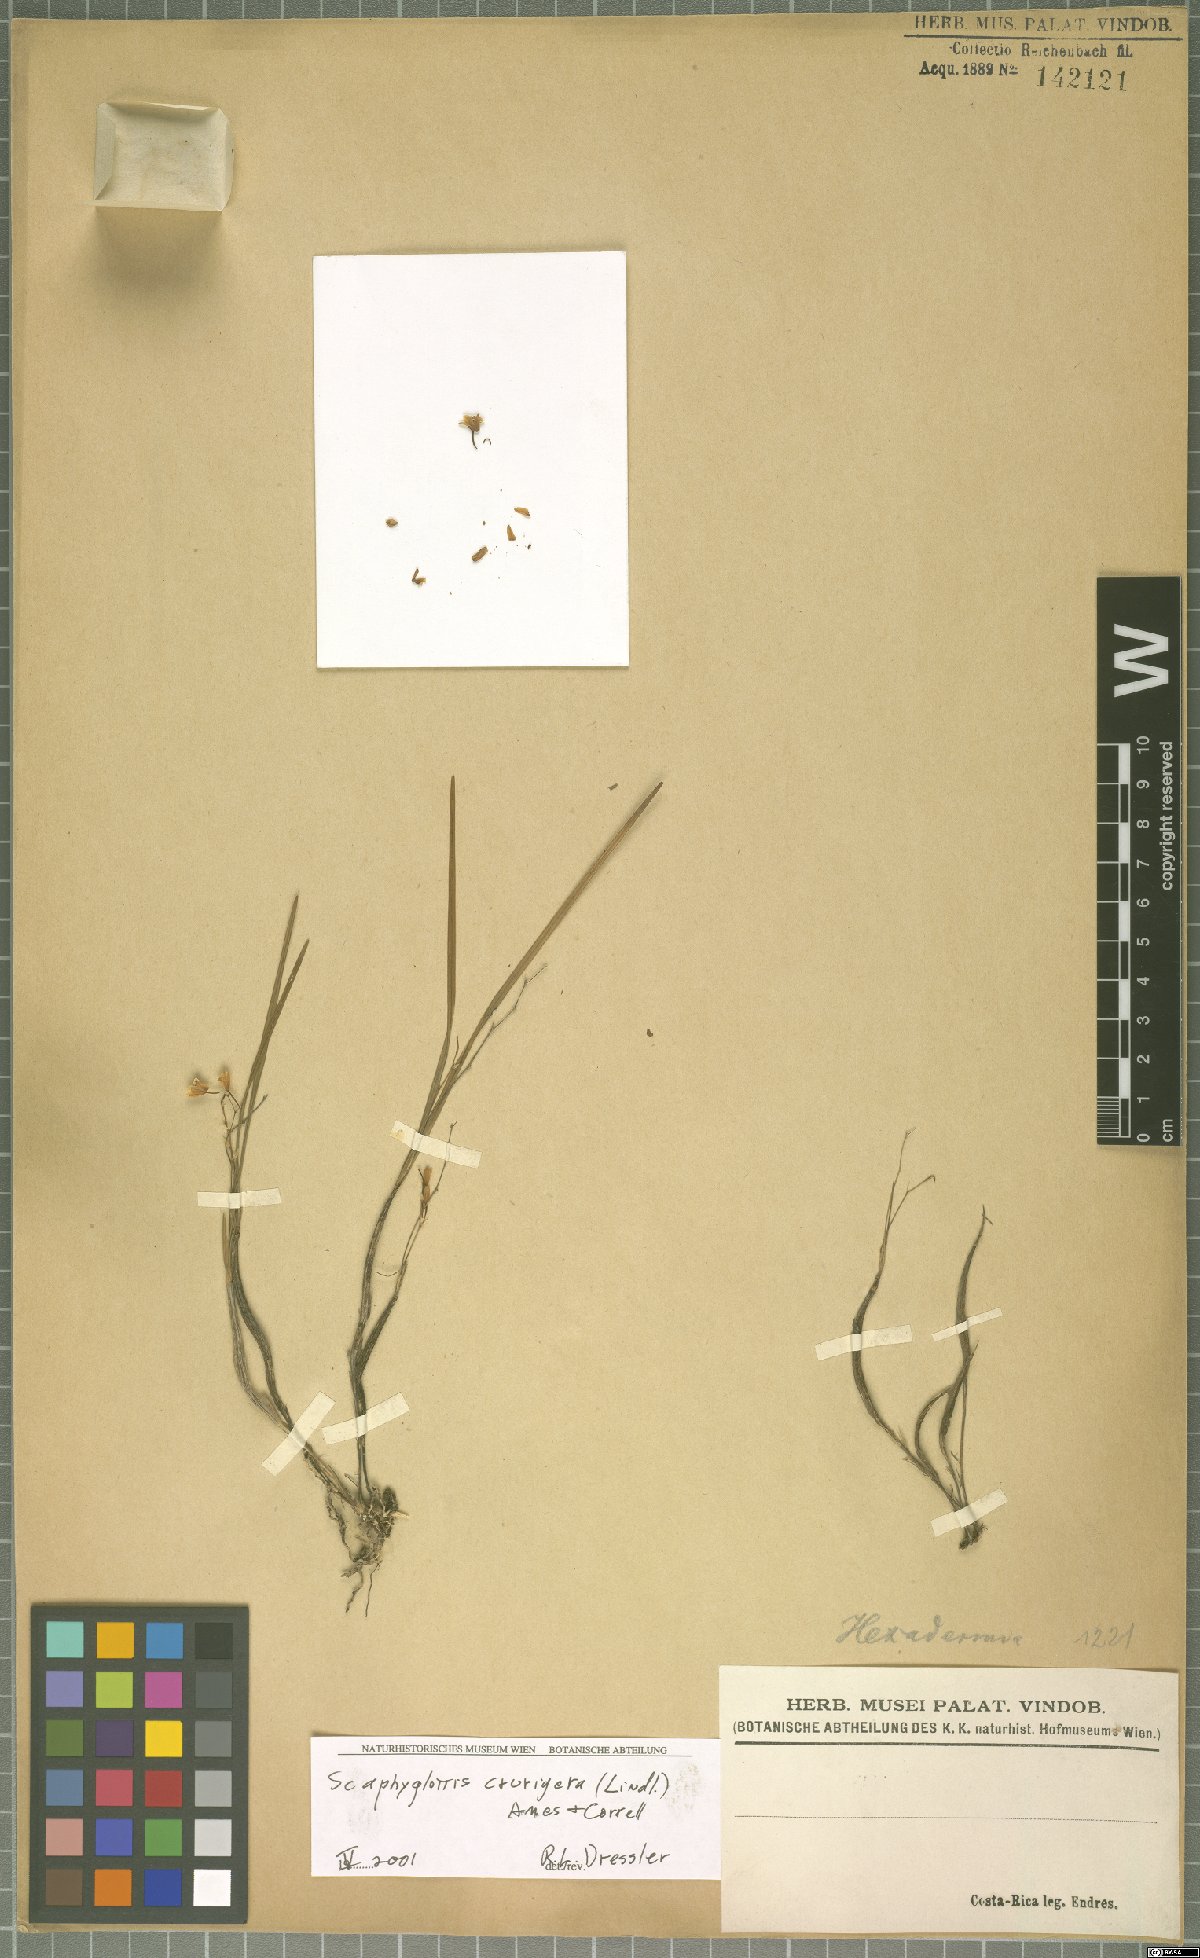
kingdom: Plantae
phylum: Tracheophyta
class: Liliopsida
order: Asparagales
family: Orchidaceae
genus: Scaphyglottis
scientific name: Scaphyglottis crurigera
